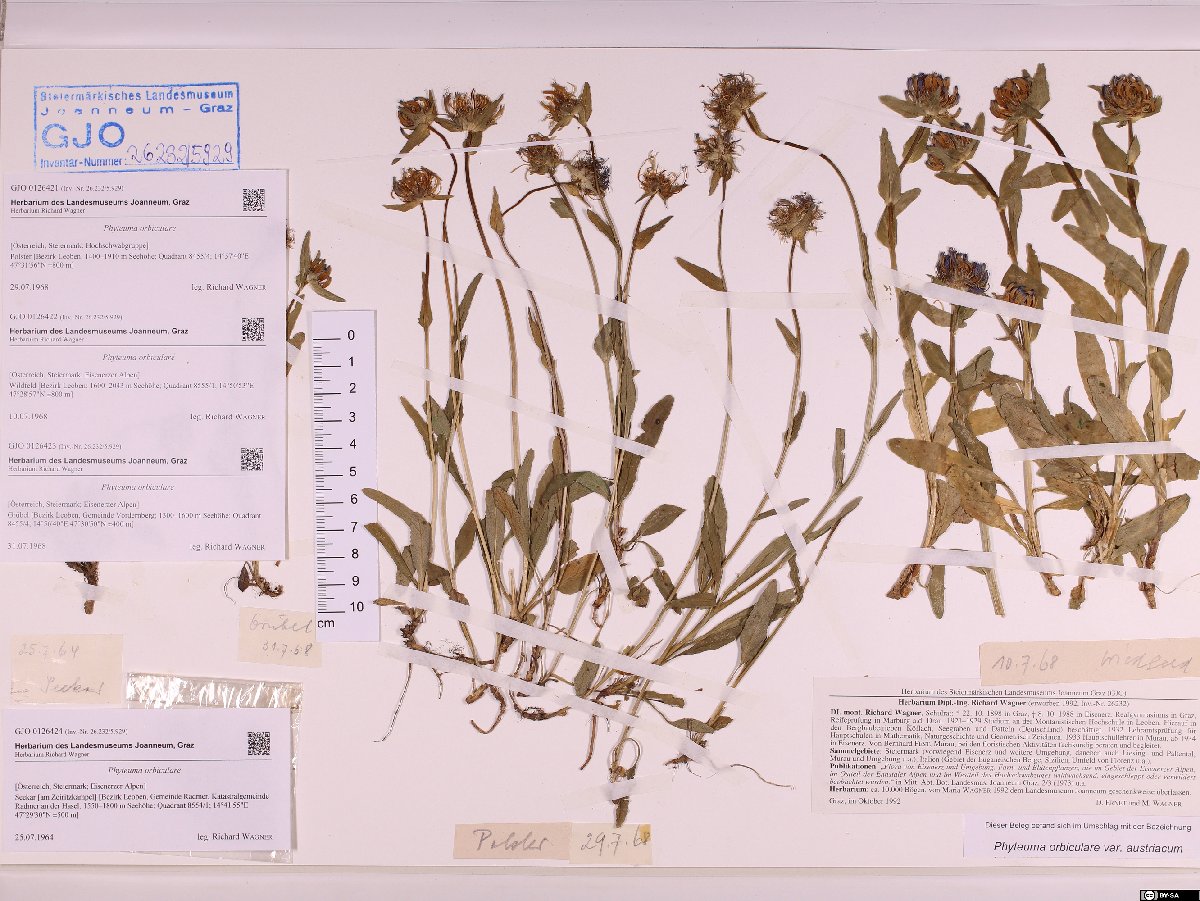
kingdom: Plantae
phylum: Tracheophyta
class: Magnoliopsida
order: Asterales
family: Campanulaceae
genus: Phyteuma
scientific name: Phyteuma orbiculare
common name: Round-headed rampion
